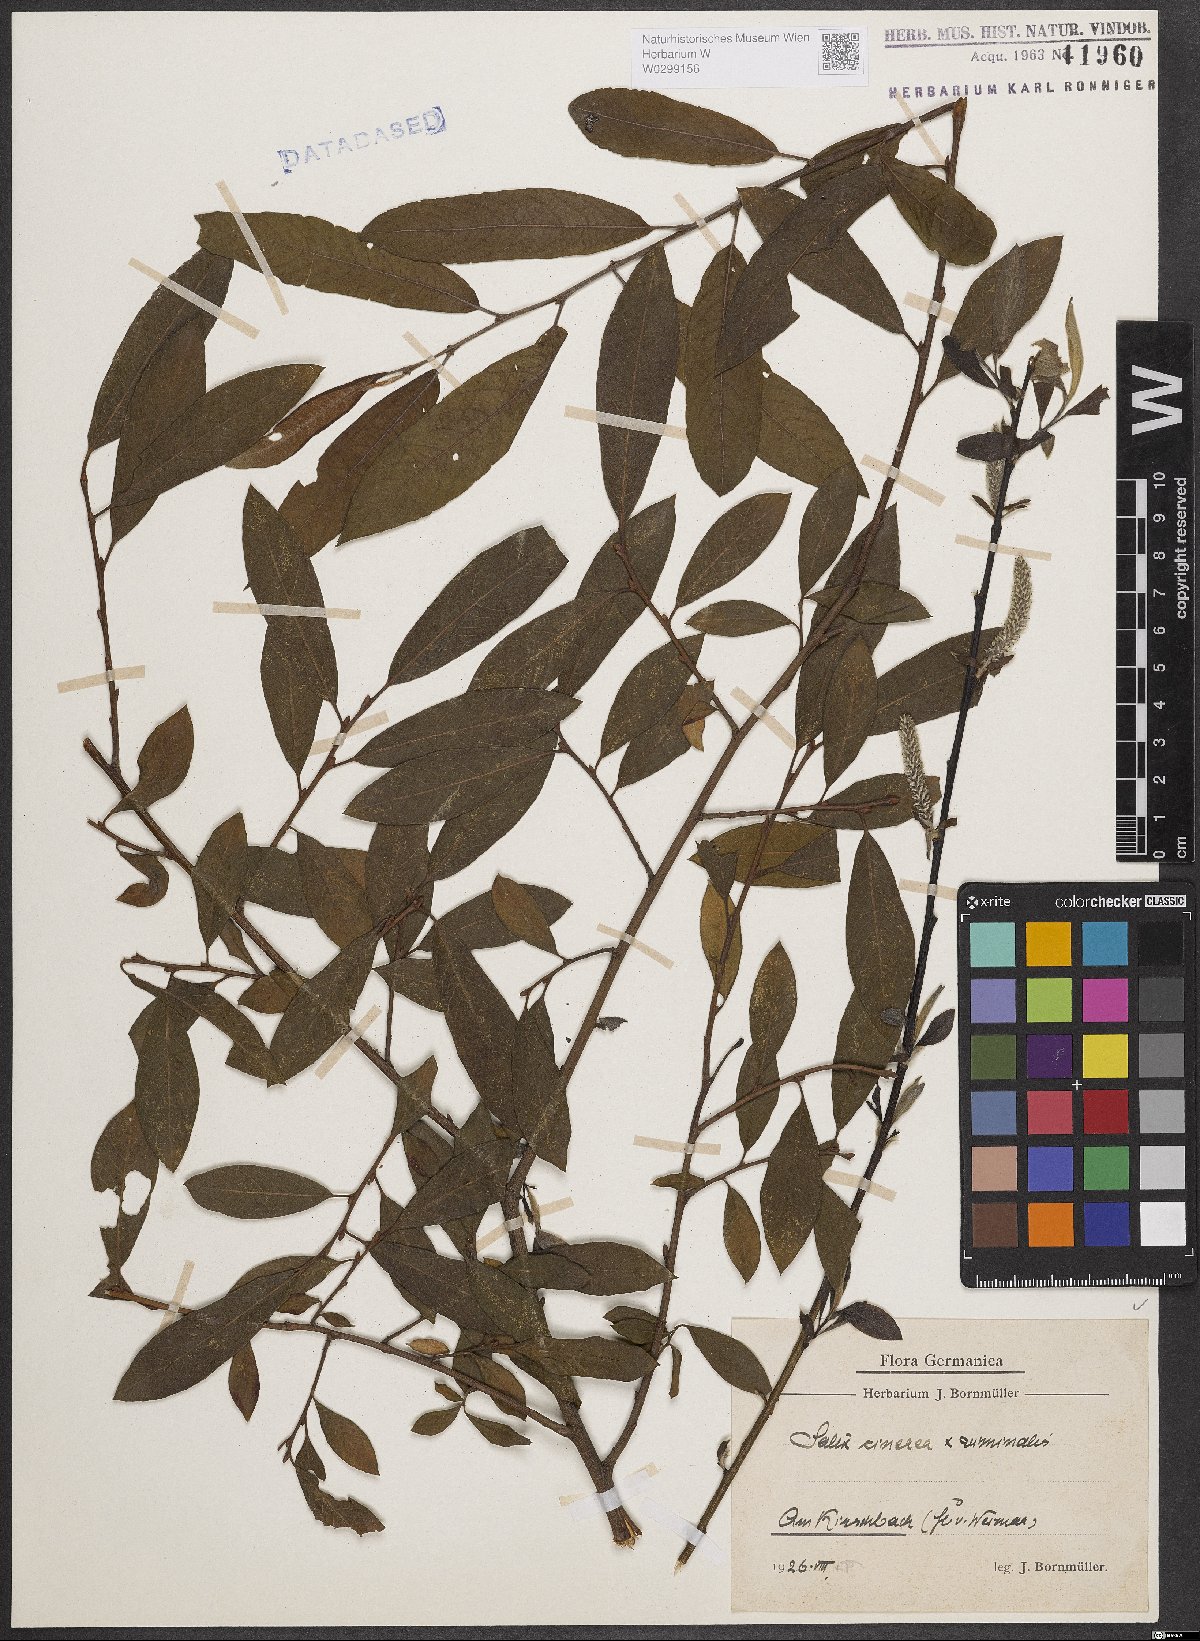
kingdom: Plantae
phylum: Tracheophyta
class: Magnoliopsida
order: Malpighiales
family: Salicaceae
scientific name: Salicaceae
